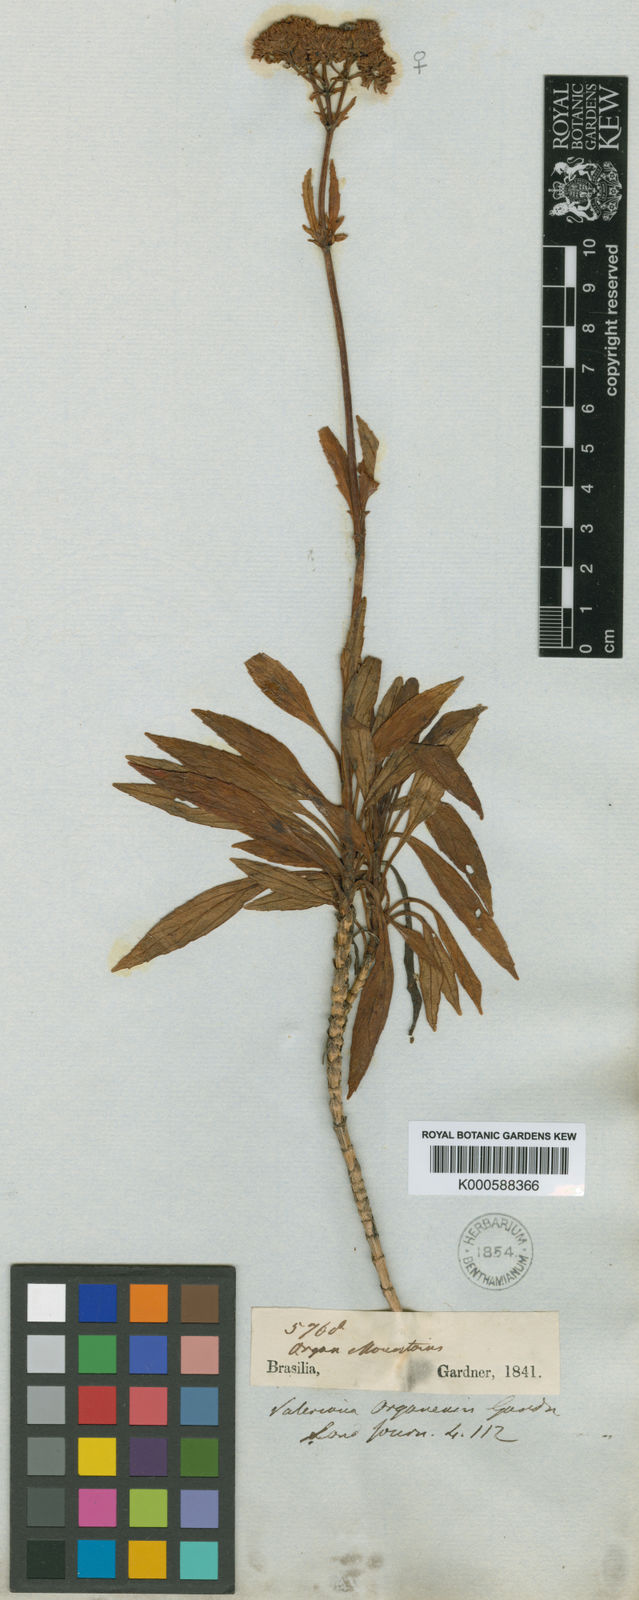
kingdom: Plantae
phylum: Tracheophyta
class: Magnoliopsida
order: Dipsacales
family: Caprifoliaceae
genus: Valeriana
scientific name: Valeriana
